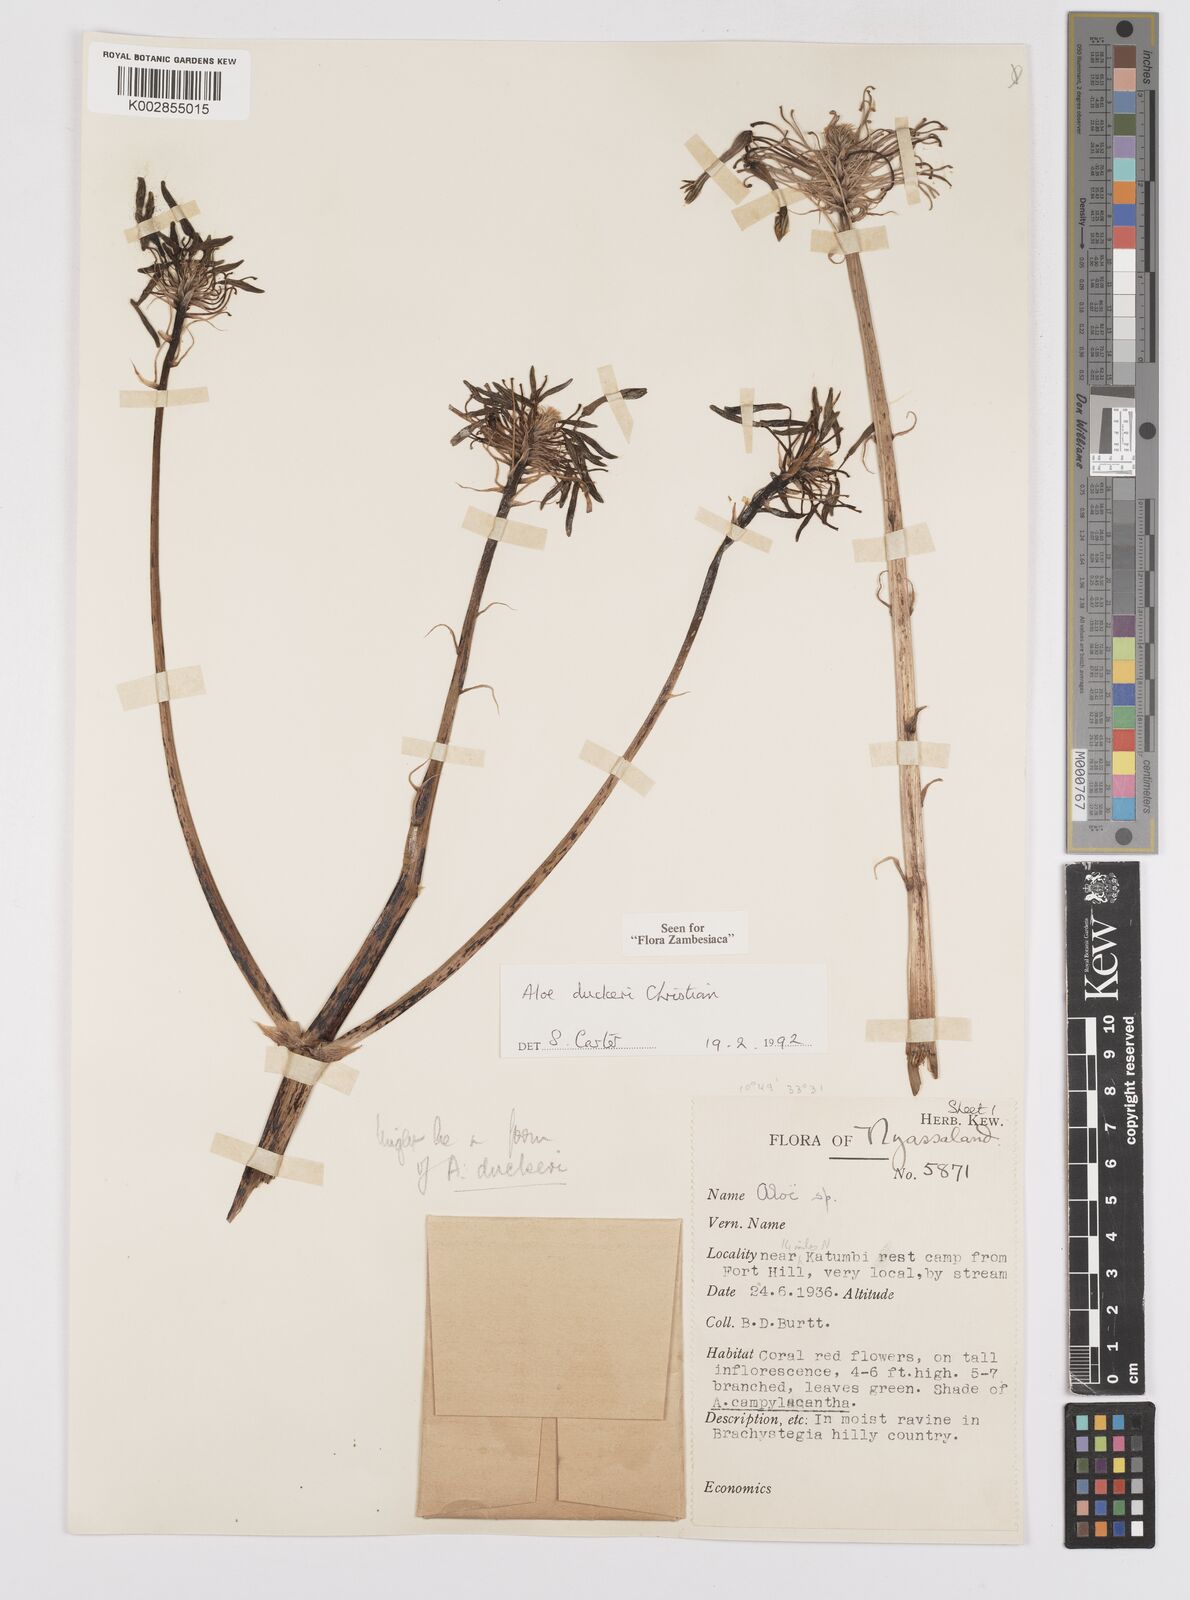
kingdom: Plantae
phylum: Tracheophyta
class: Liliopsida
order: Asparagales
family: Asphodelaceae
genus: Aloe
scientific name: Aloe duckeri
